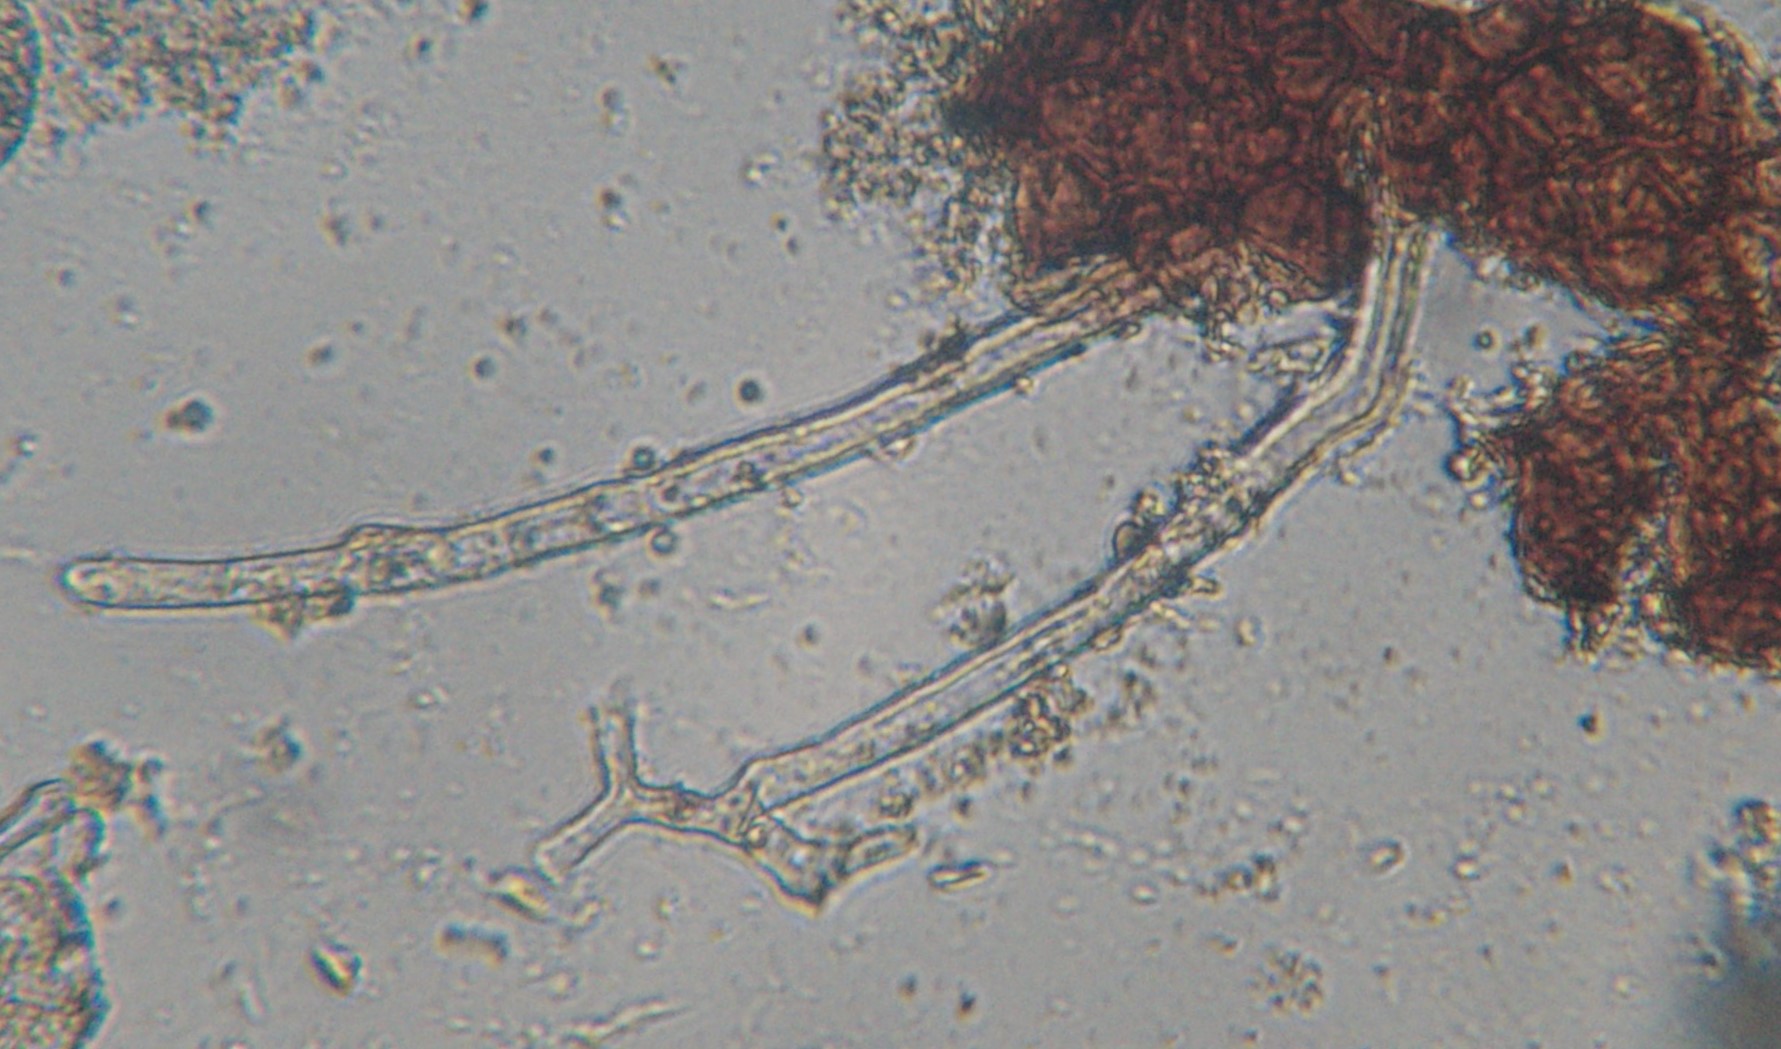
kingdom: Fungi
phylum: Ascomycota
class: Leotiomycetes
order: Helotiales
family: Erysiphaceae
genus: Erysiphe
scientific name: Erysiphe syringae-japonicae
